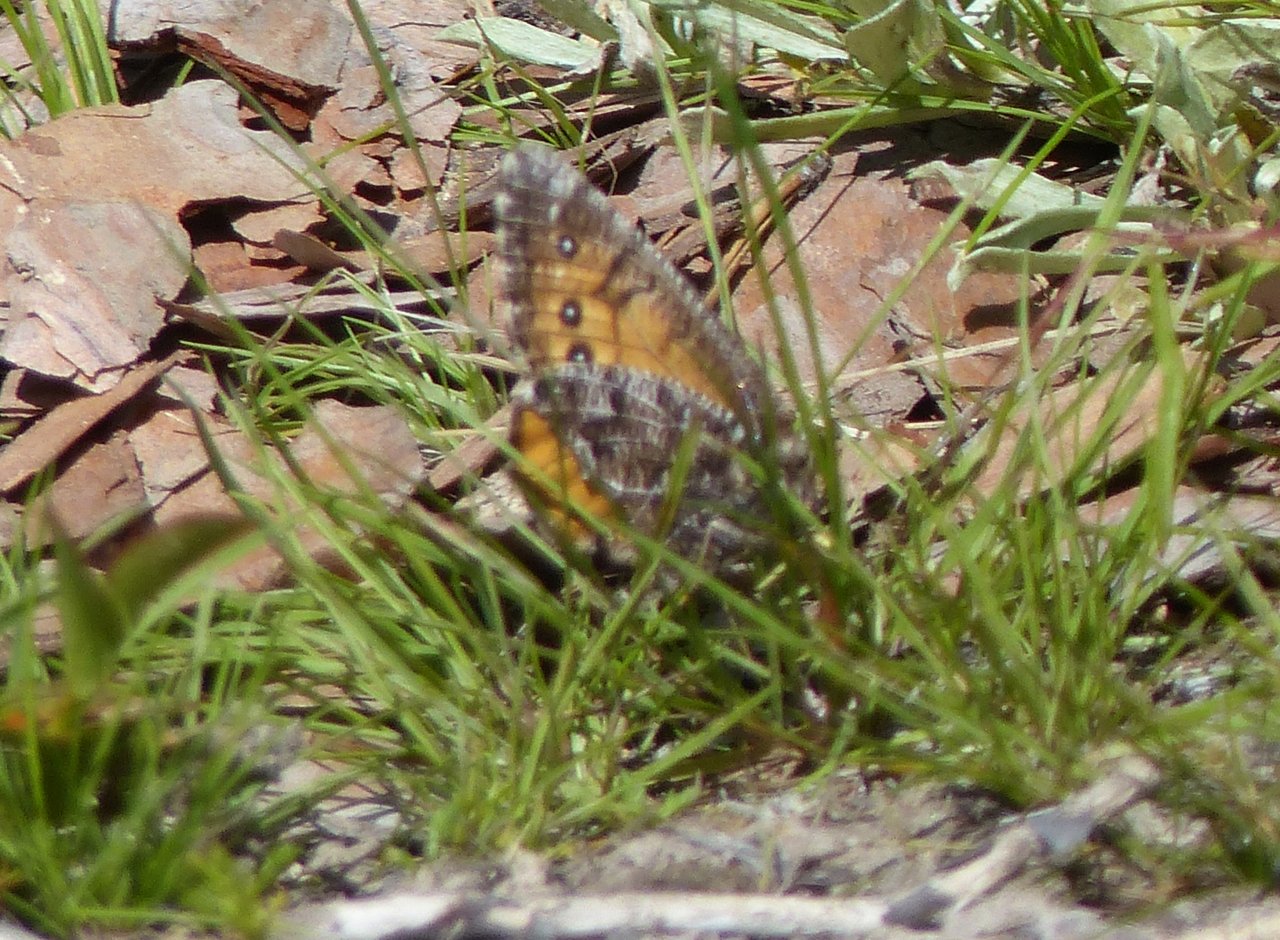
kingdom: Animalia
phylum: Arthropoda
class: Insecta
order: Lepidoptera
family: Nymphalidae
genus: Oeneis
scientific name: Oeneis chryxus
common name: Chryxus Arctic
